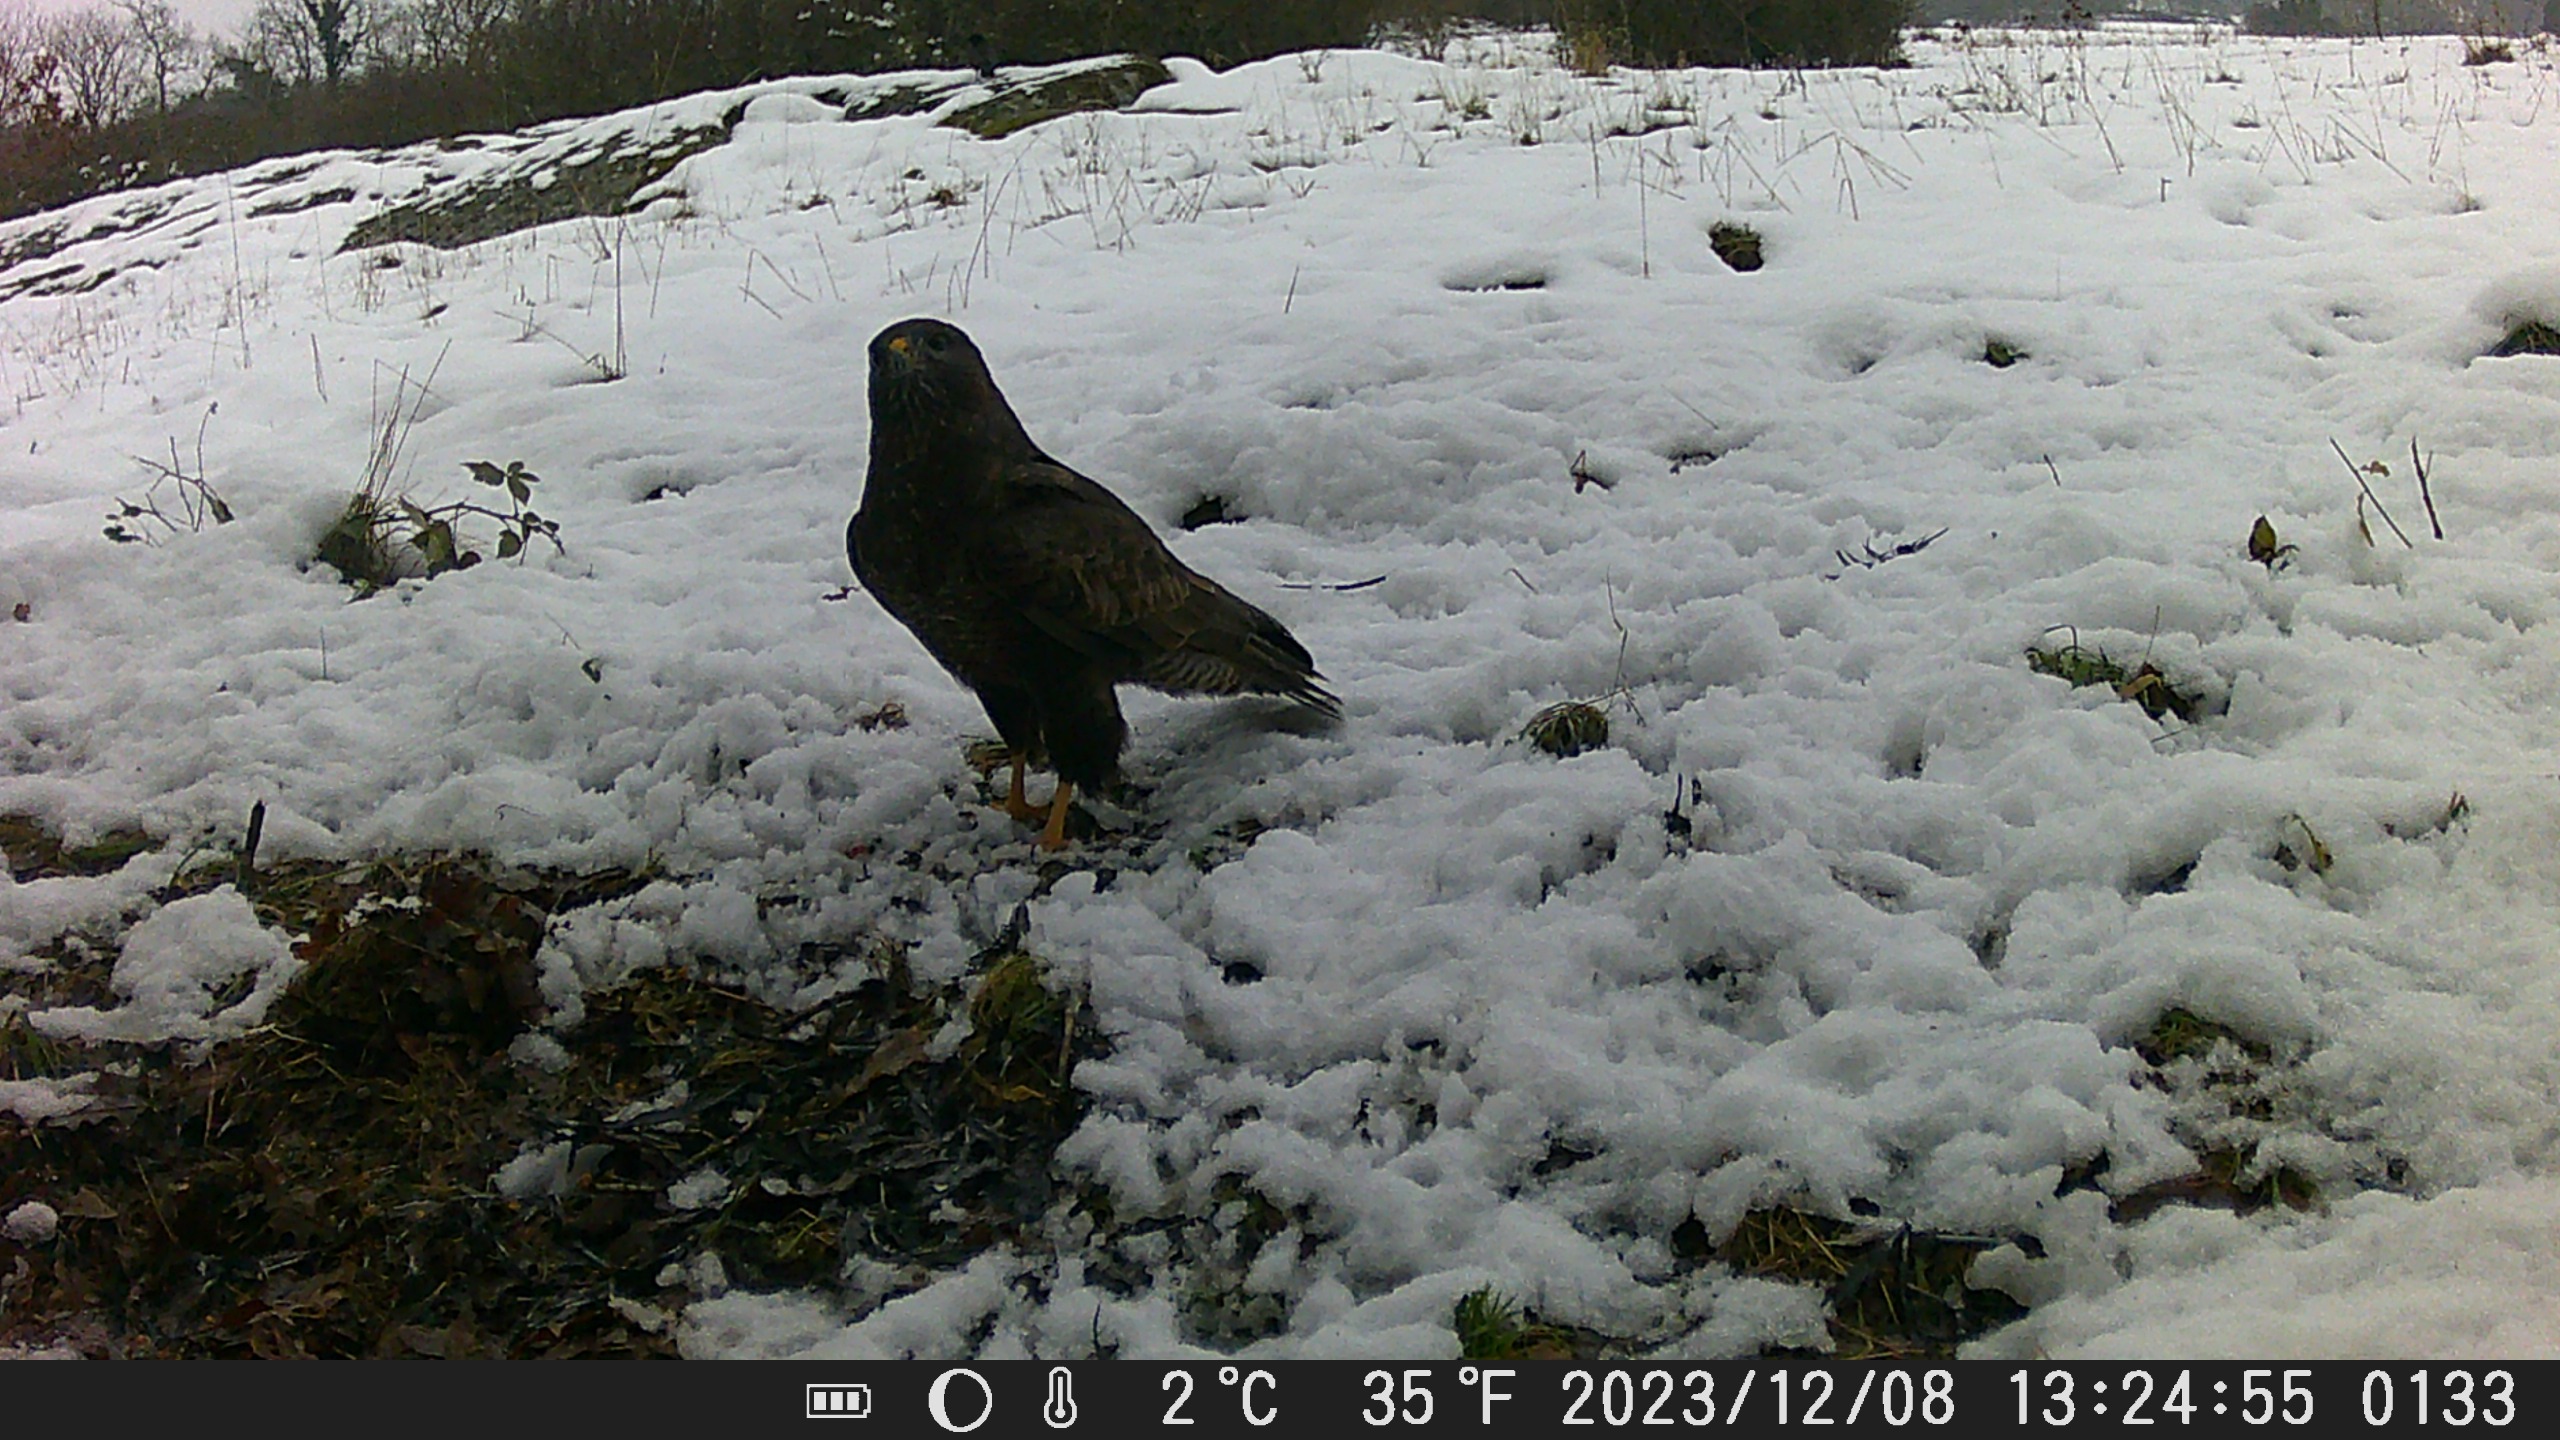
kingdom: Animalia
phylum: Chordata
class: Aves
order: Accipitriformes
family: Accipitridae
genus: Buteo
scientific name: Buteo buteo
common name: Musvåge
